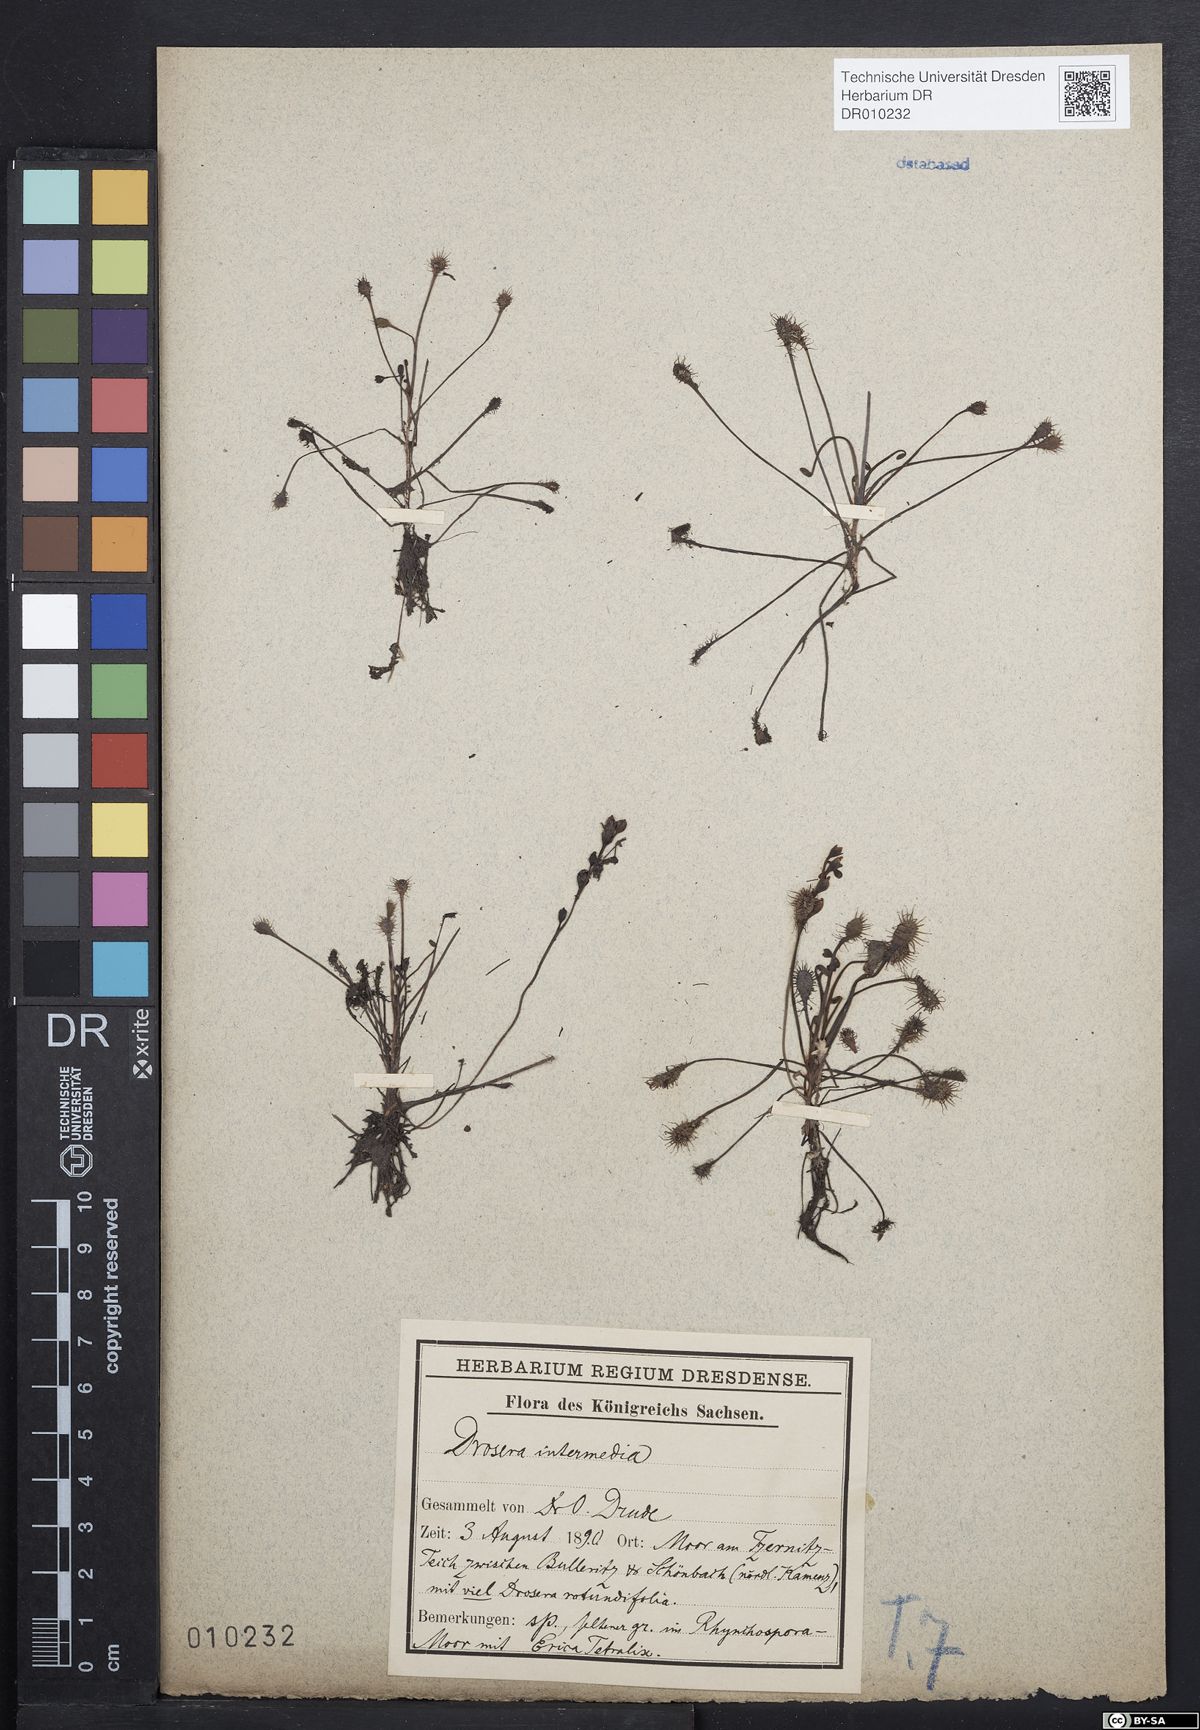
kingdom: Plantae
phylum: Tracheophyta
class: Magnoliopsida
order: Caryophyllales
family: Droseraceae
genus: Drosera
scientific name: Drosera intermedia
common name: Oblong-leaved sundew
